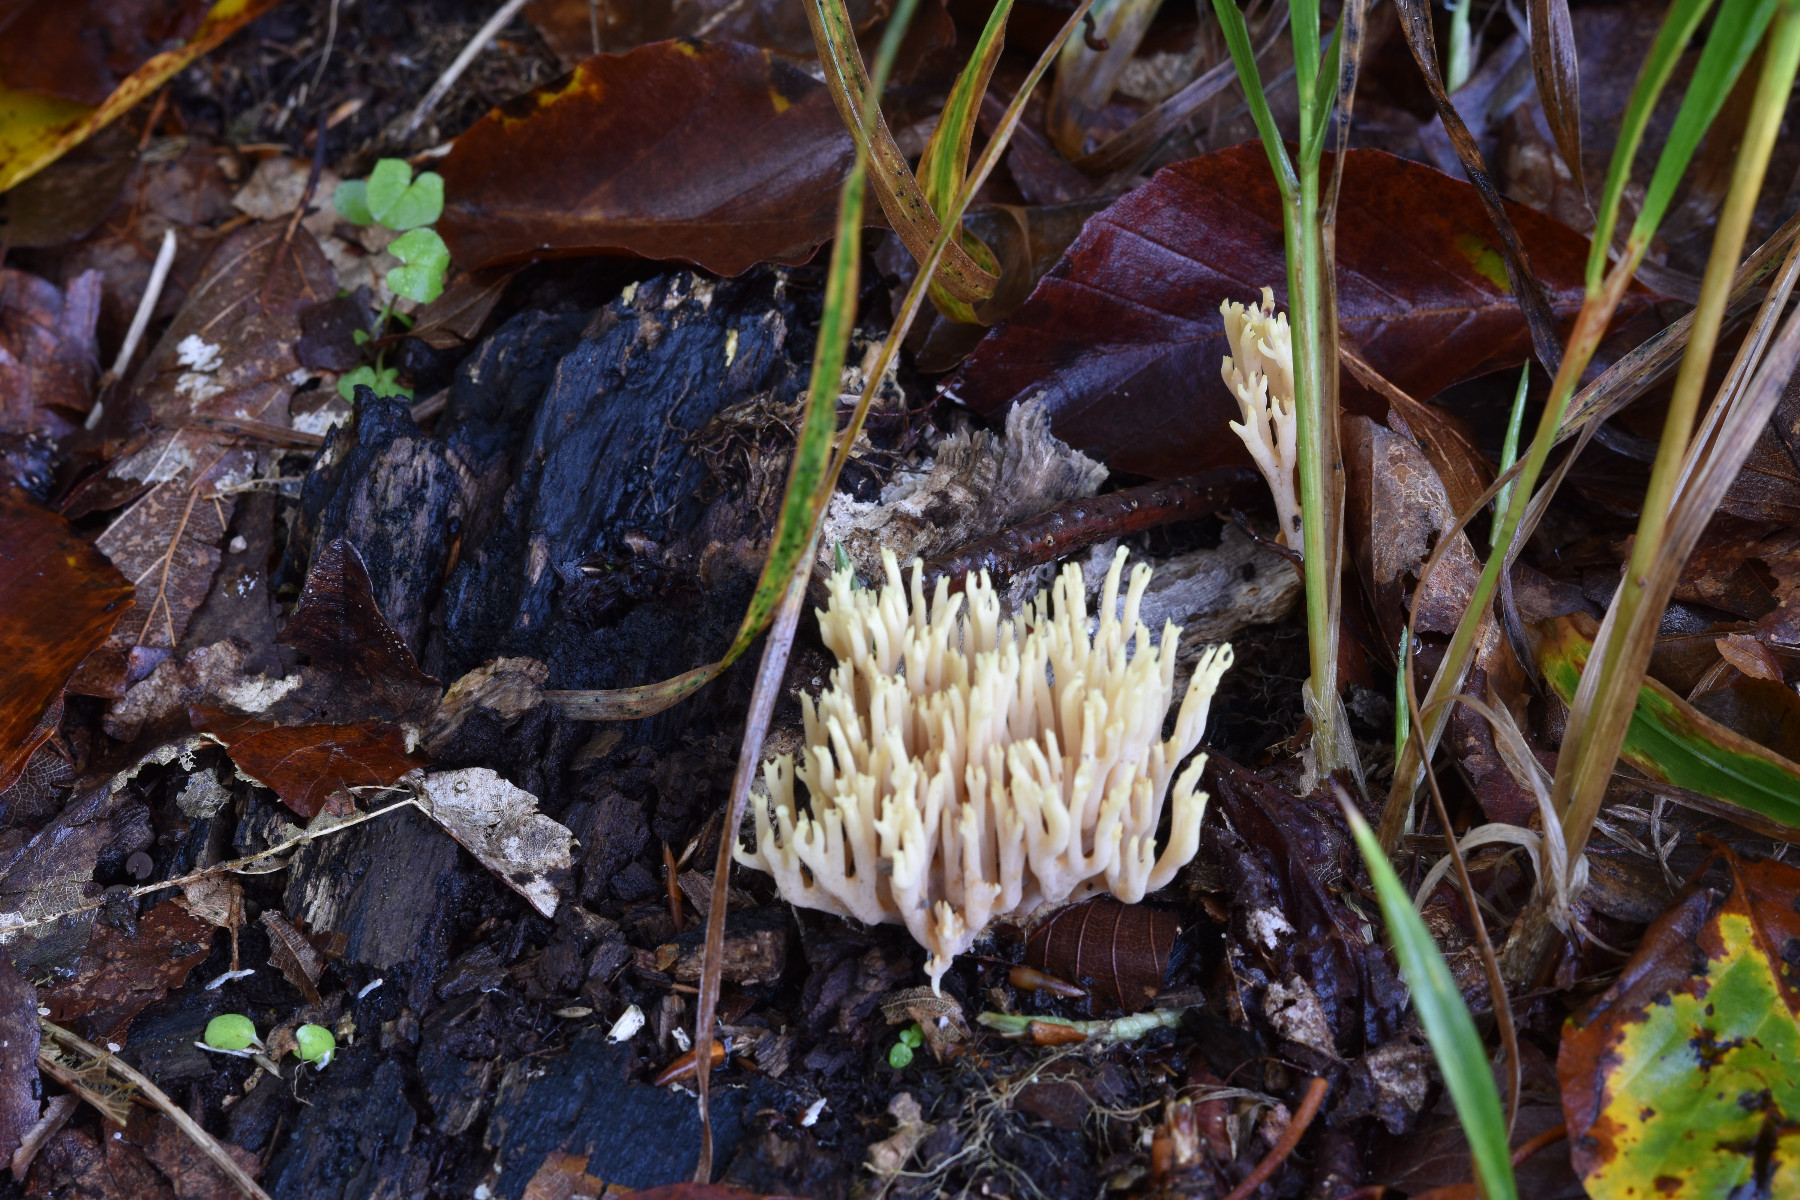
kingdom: Fungi
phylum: Basidiomycota
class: Agaricomycetes
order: Gomphales
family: Gomphaceae
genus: Ramaria
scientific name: Ramaria stricta
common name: rank koralsvamp
